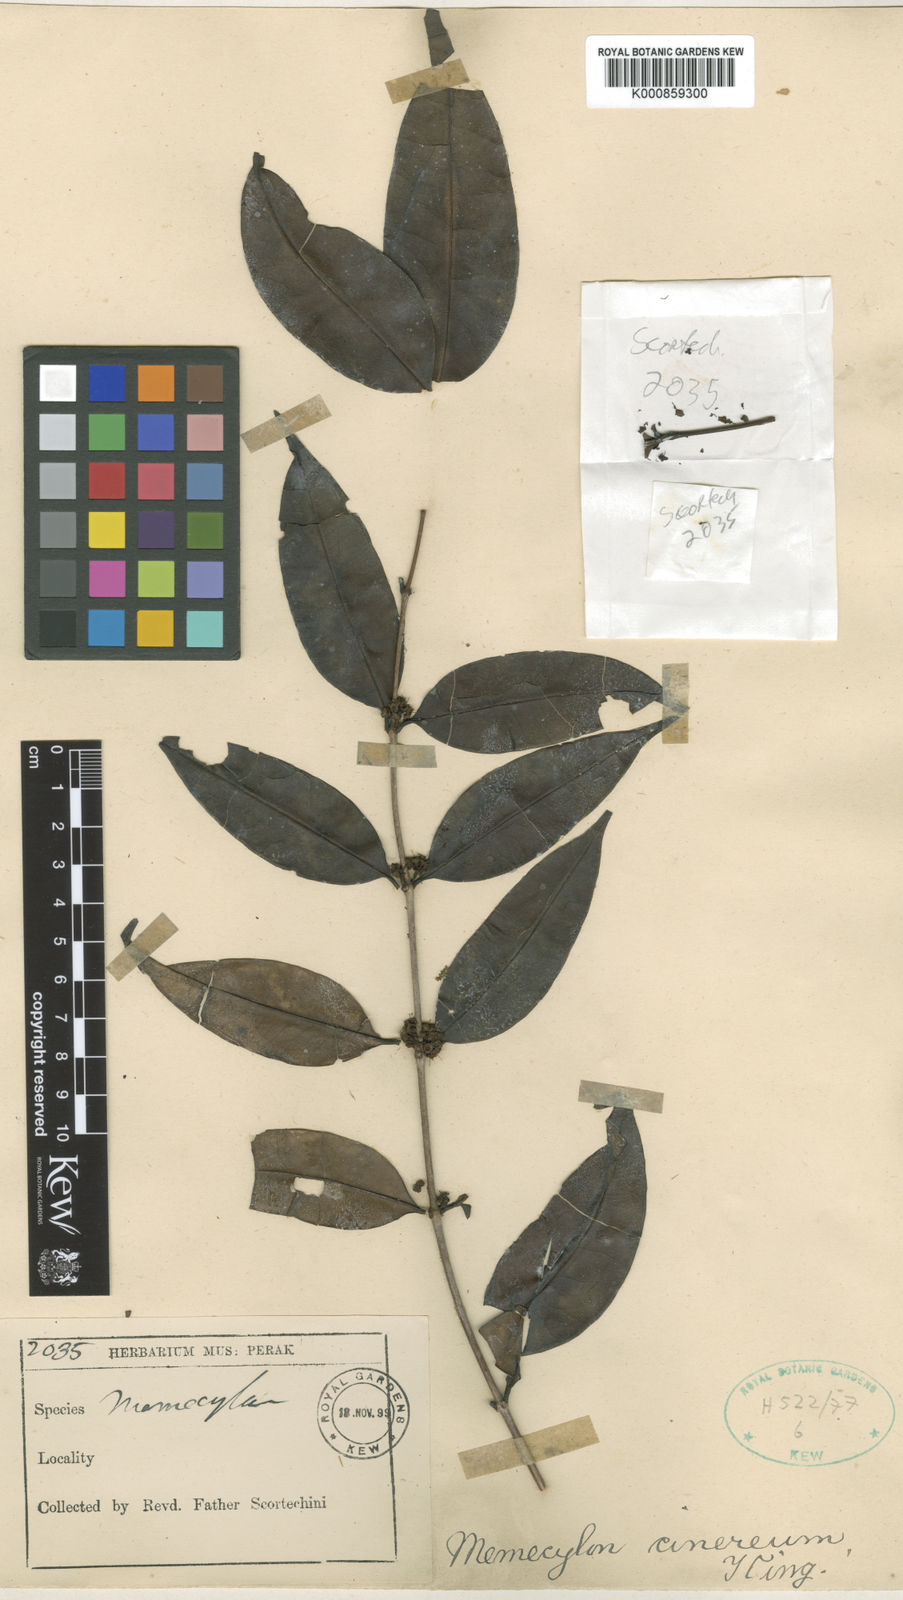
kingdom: Plantae
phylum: Tracheophyta
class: Magnoliopsida
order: Myrtales
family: Melastomataceae
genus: Memecylon
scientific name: Memecylon cinereum
